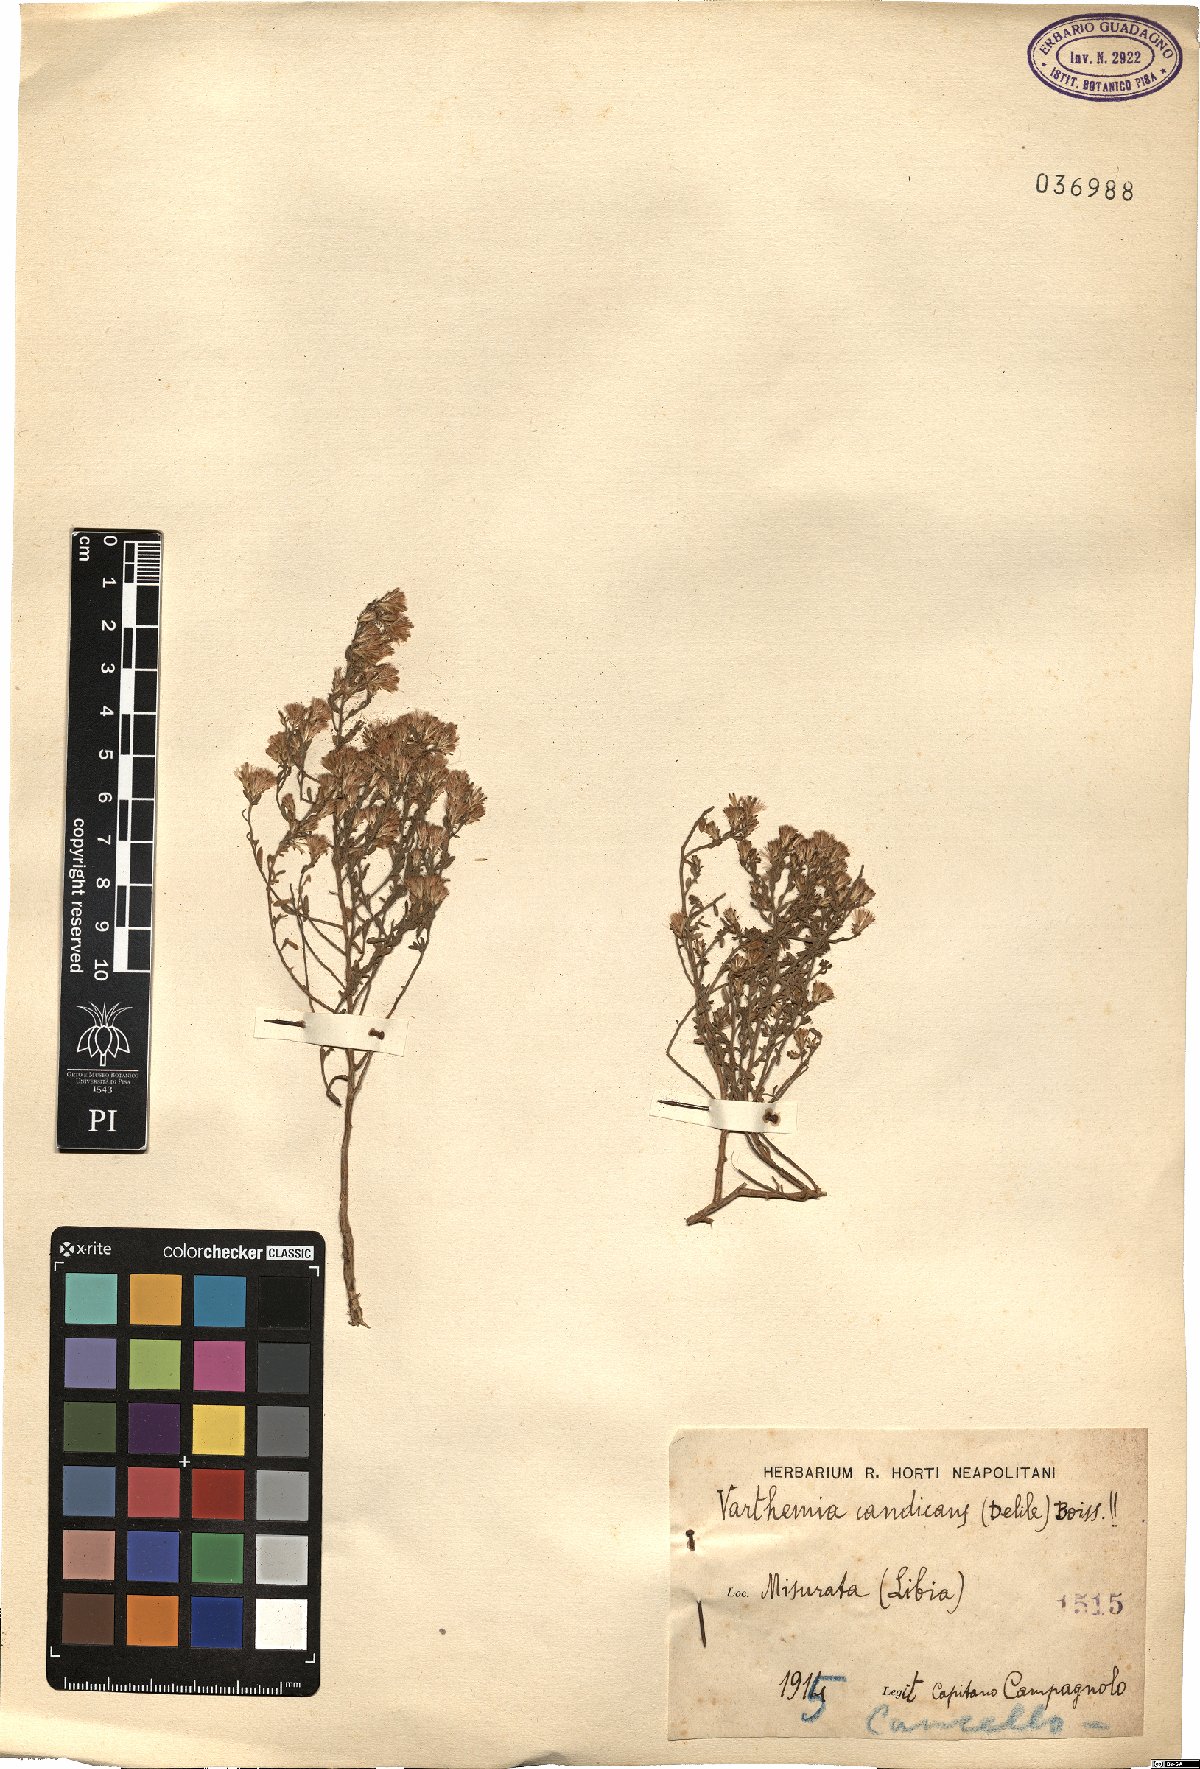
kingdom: Plantae
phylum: Tracheophyta
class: Magnoliopsida
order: Asterales
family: Asteraceae
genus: Chiliadenus
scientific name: Chiliadenus candicans
